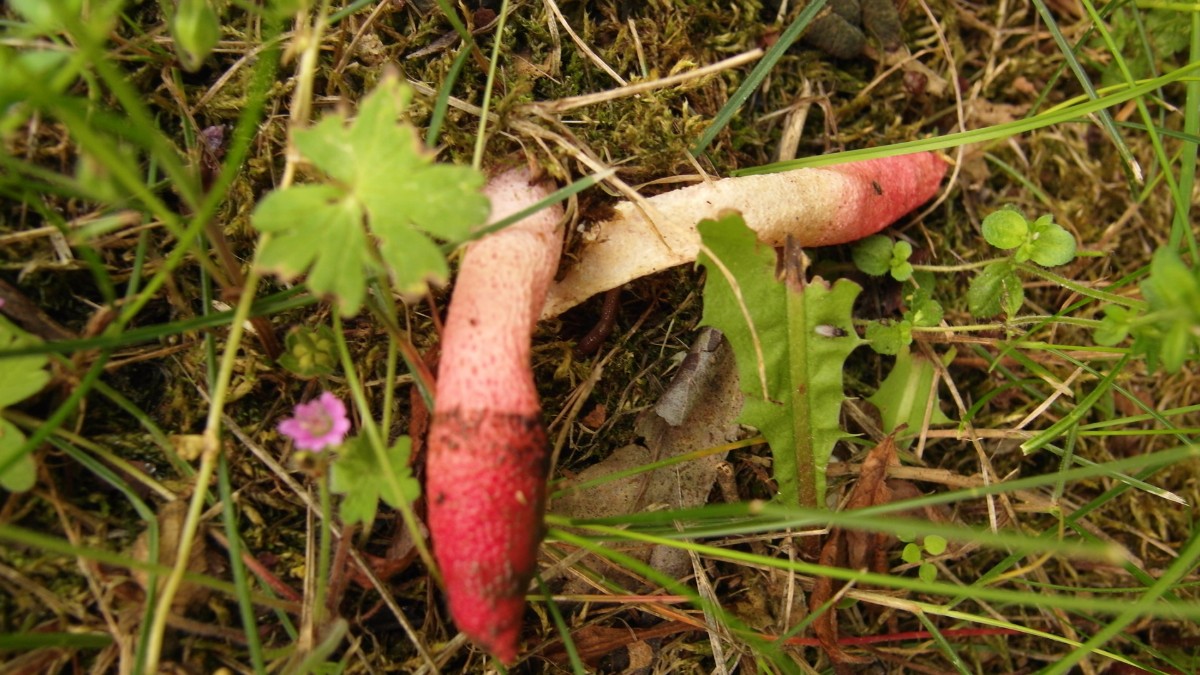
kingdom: Fungi
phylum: Basidiomycota
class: Agaricomycetes
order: Phallales
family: Phallaceae
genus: Mutinus
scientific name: Mutinus ravenelii
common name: rød stinksvamp
